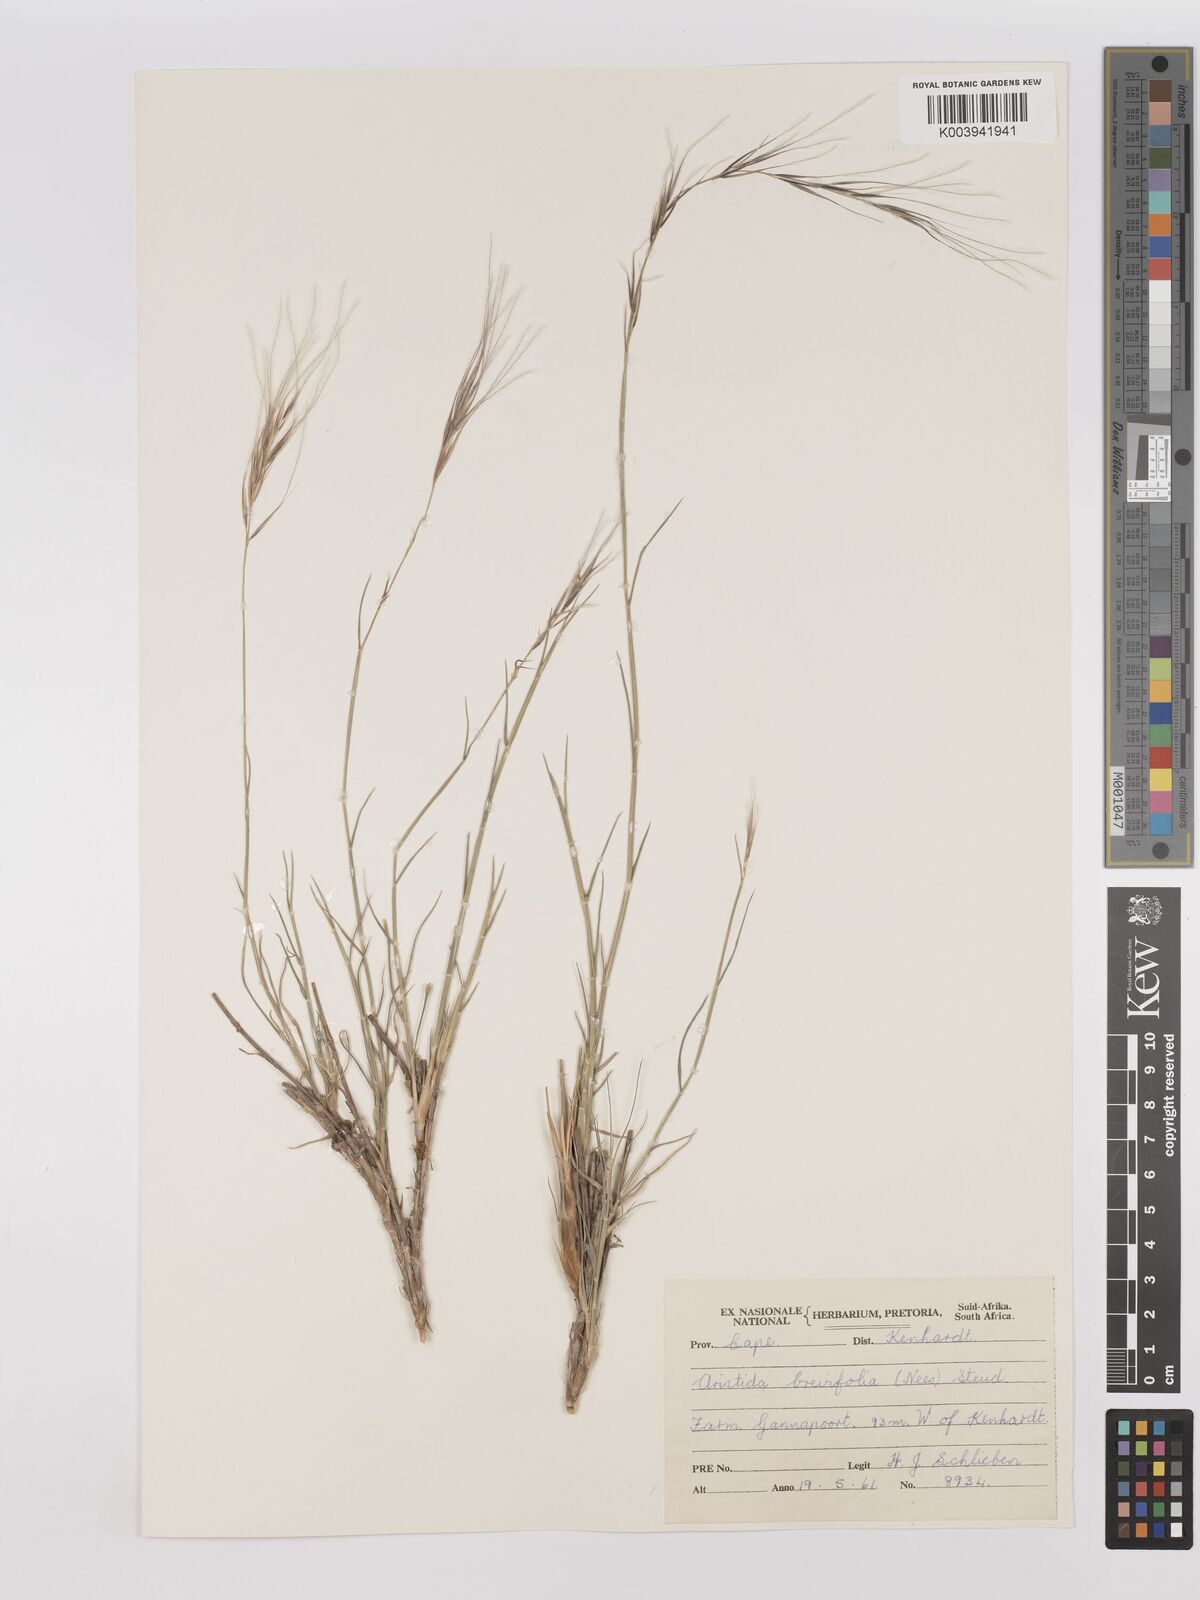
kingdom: Plantae
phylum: Tracheophyta
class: Liliopsida
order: Poales
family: Poaceae
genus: Stipagrostis
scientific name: Stipagrostis brevifolia
